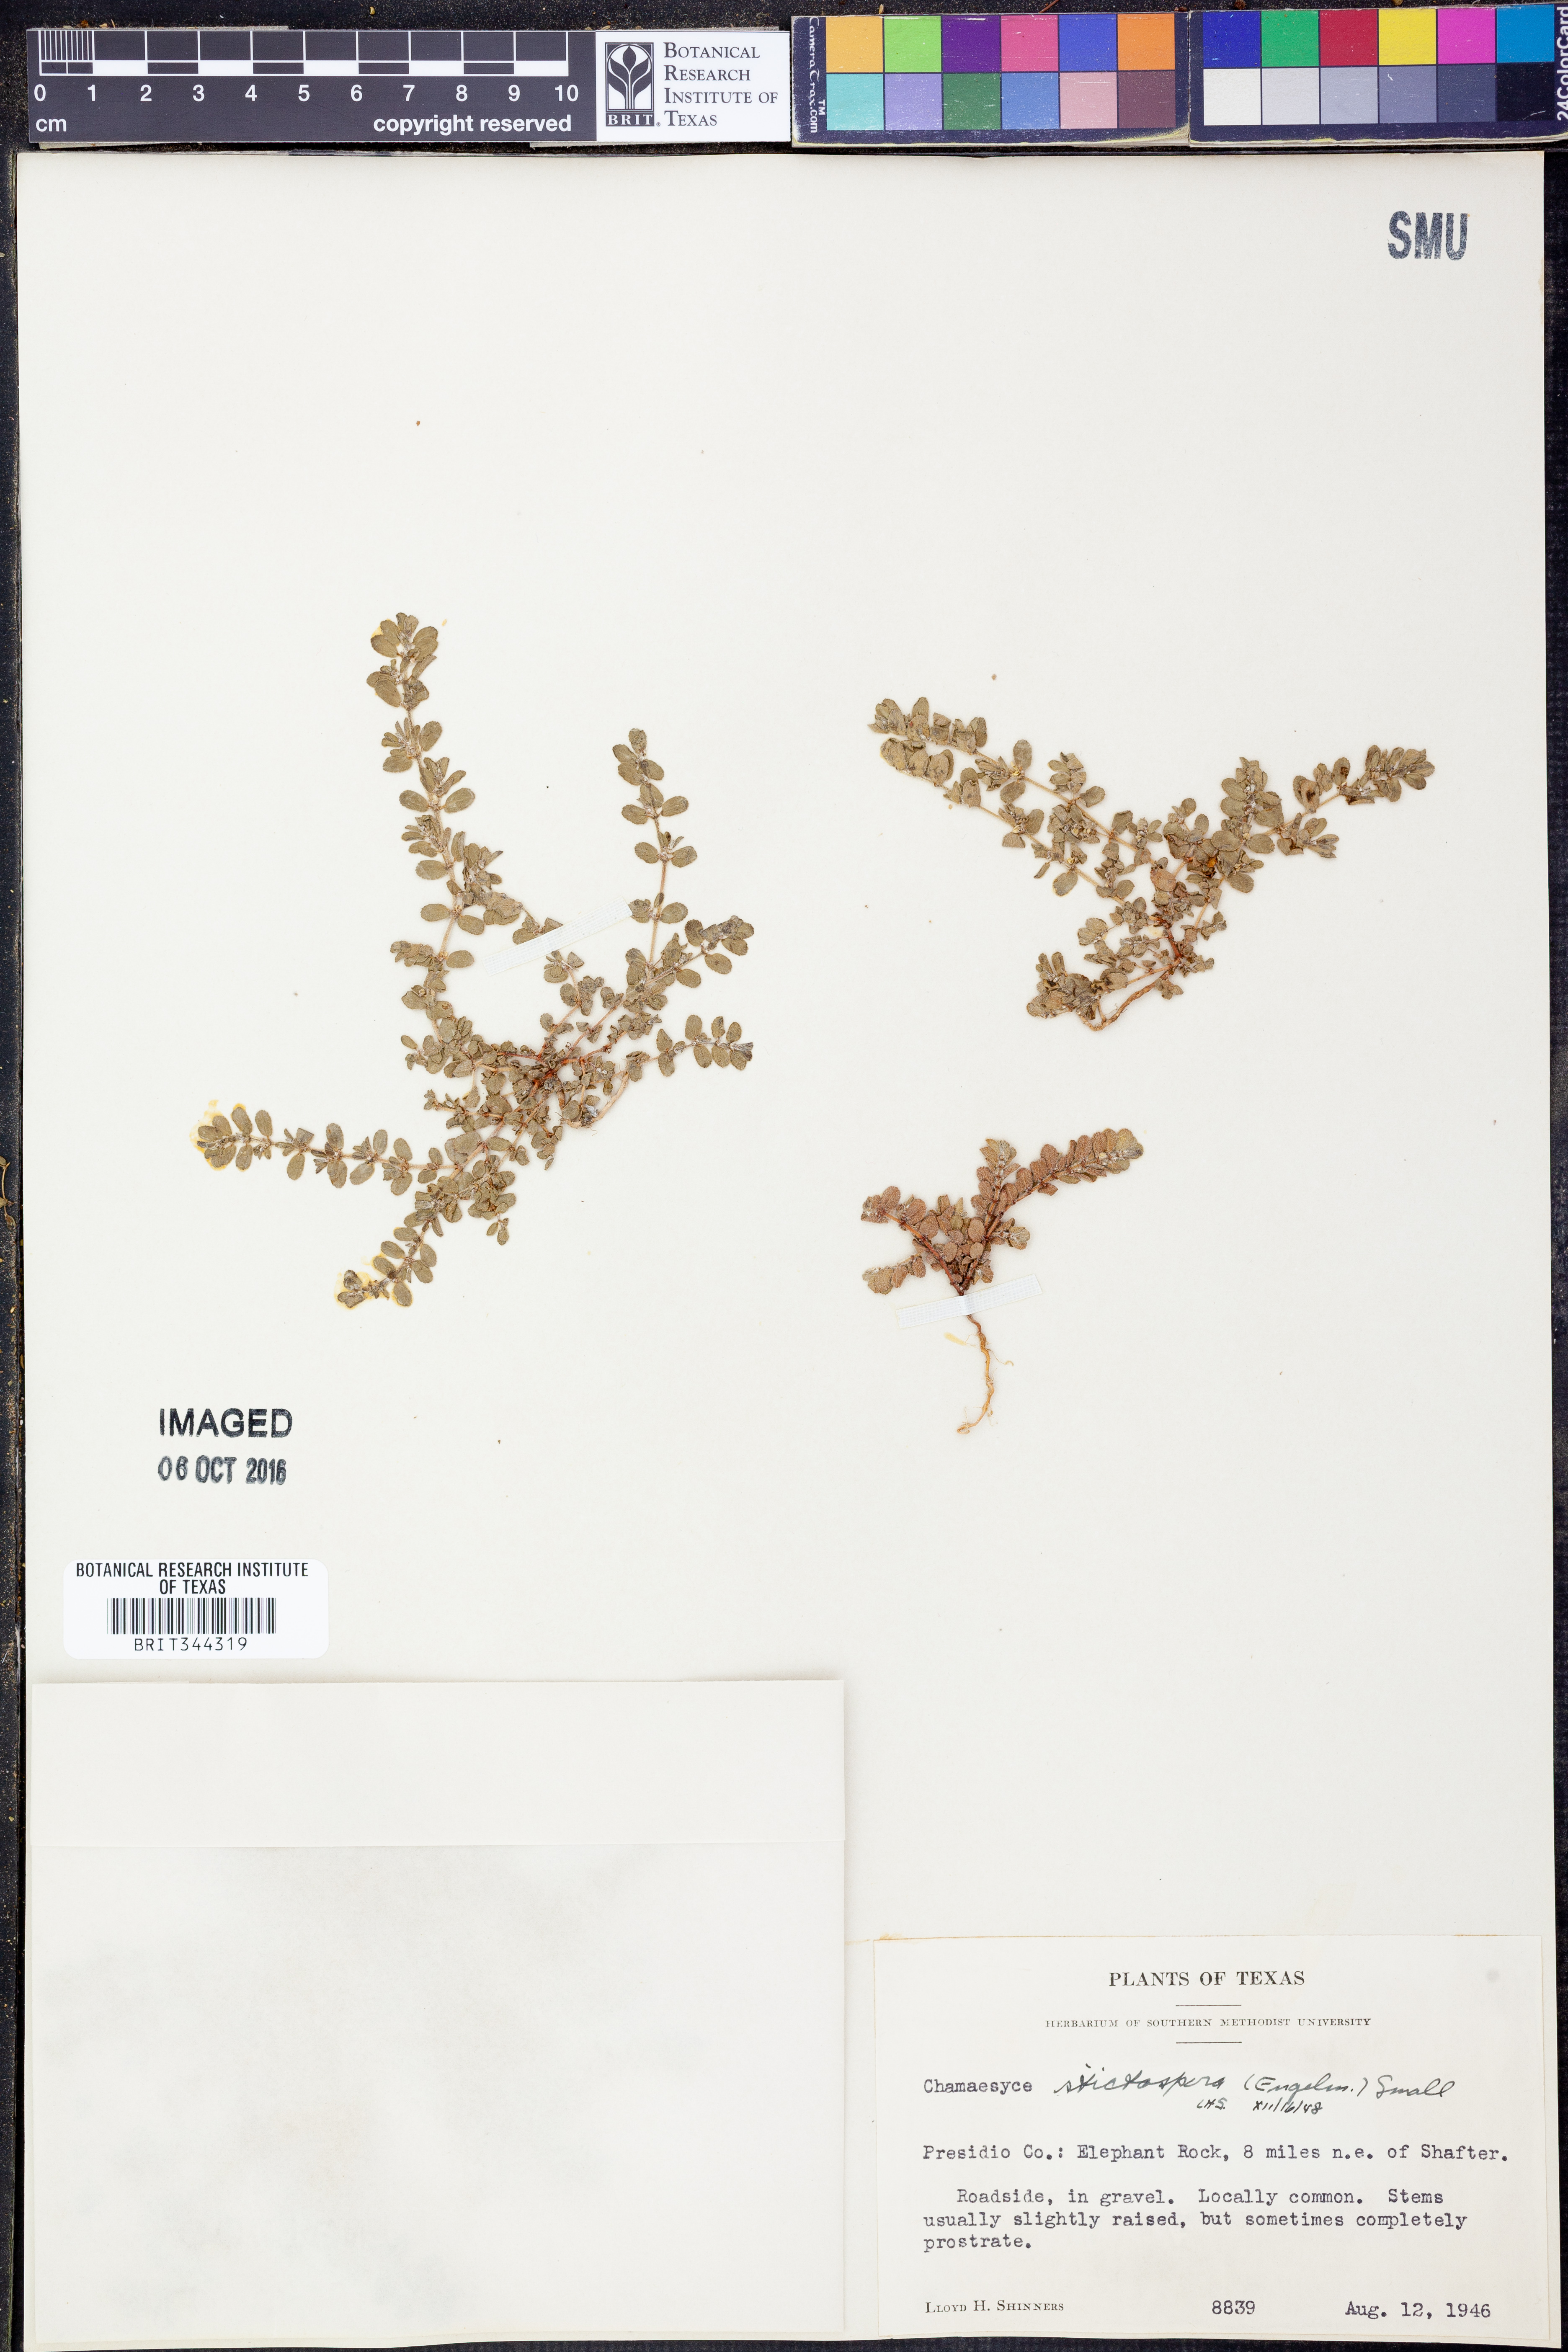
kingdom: Plantae
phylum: Tracheophyta
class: Magnoliopsida
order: Malpighiales
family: Euphorbiaceae
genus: Euphorbia
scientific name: Euphorbia stictospora
